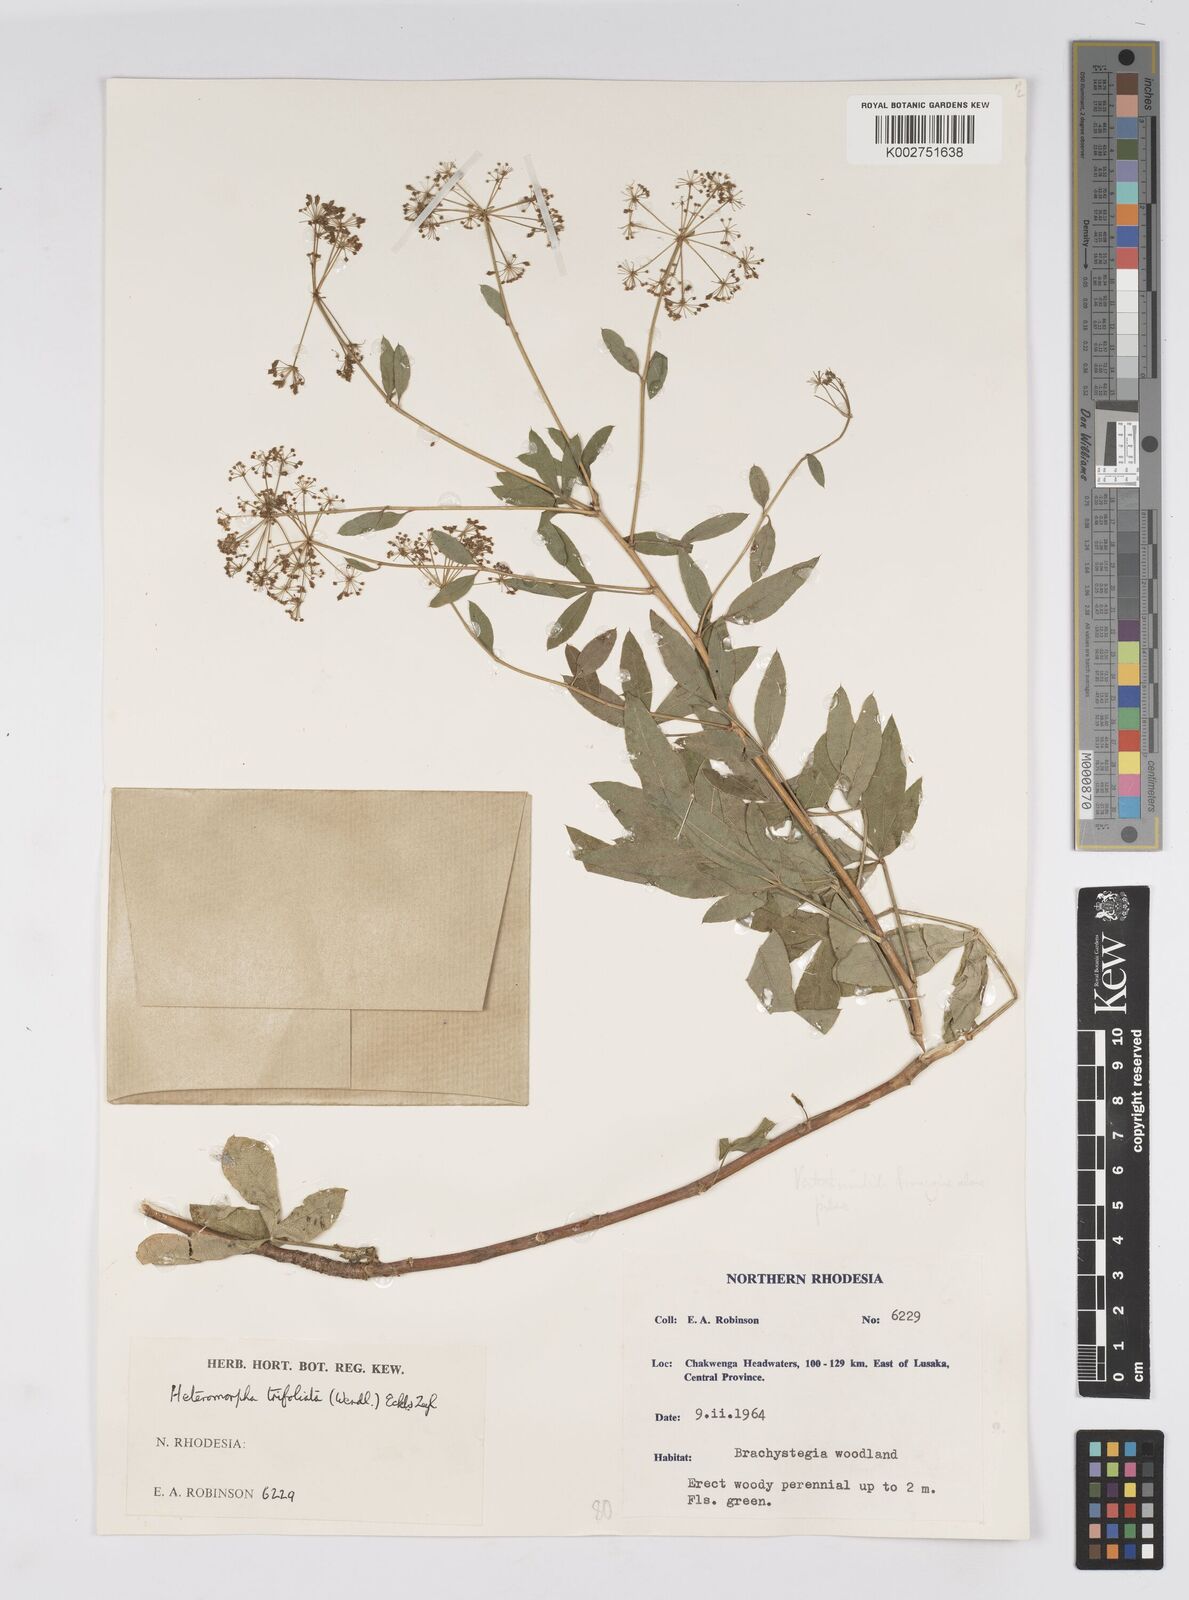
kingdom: Plantae
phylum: Tracheophyta
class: Magnoliopsida
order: Apiales
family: Apiaceae
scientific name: Apiaceae
